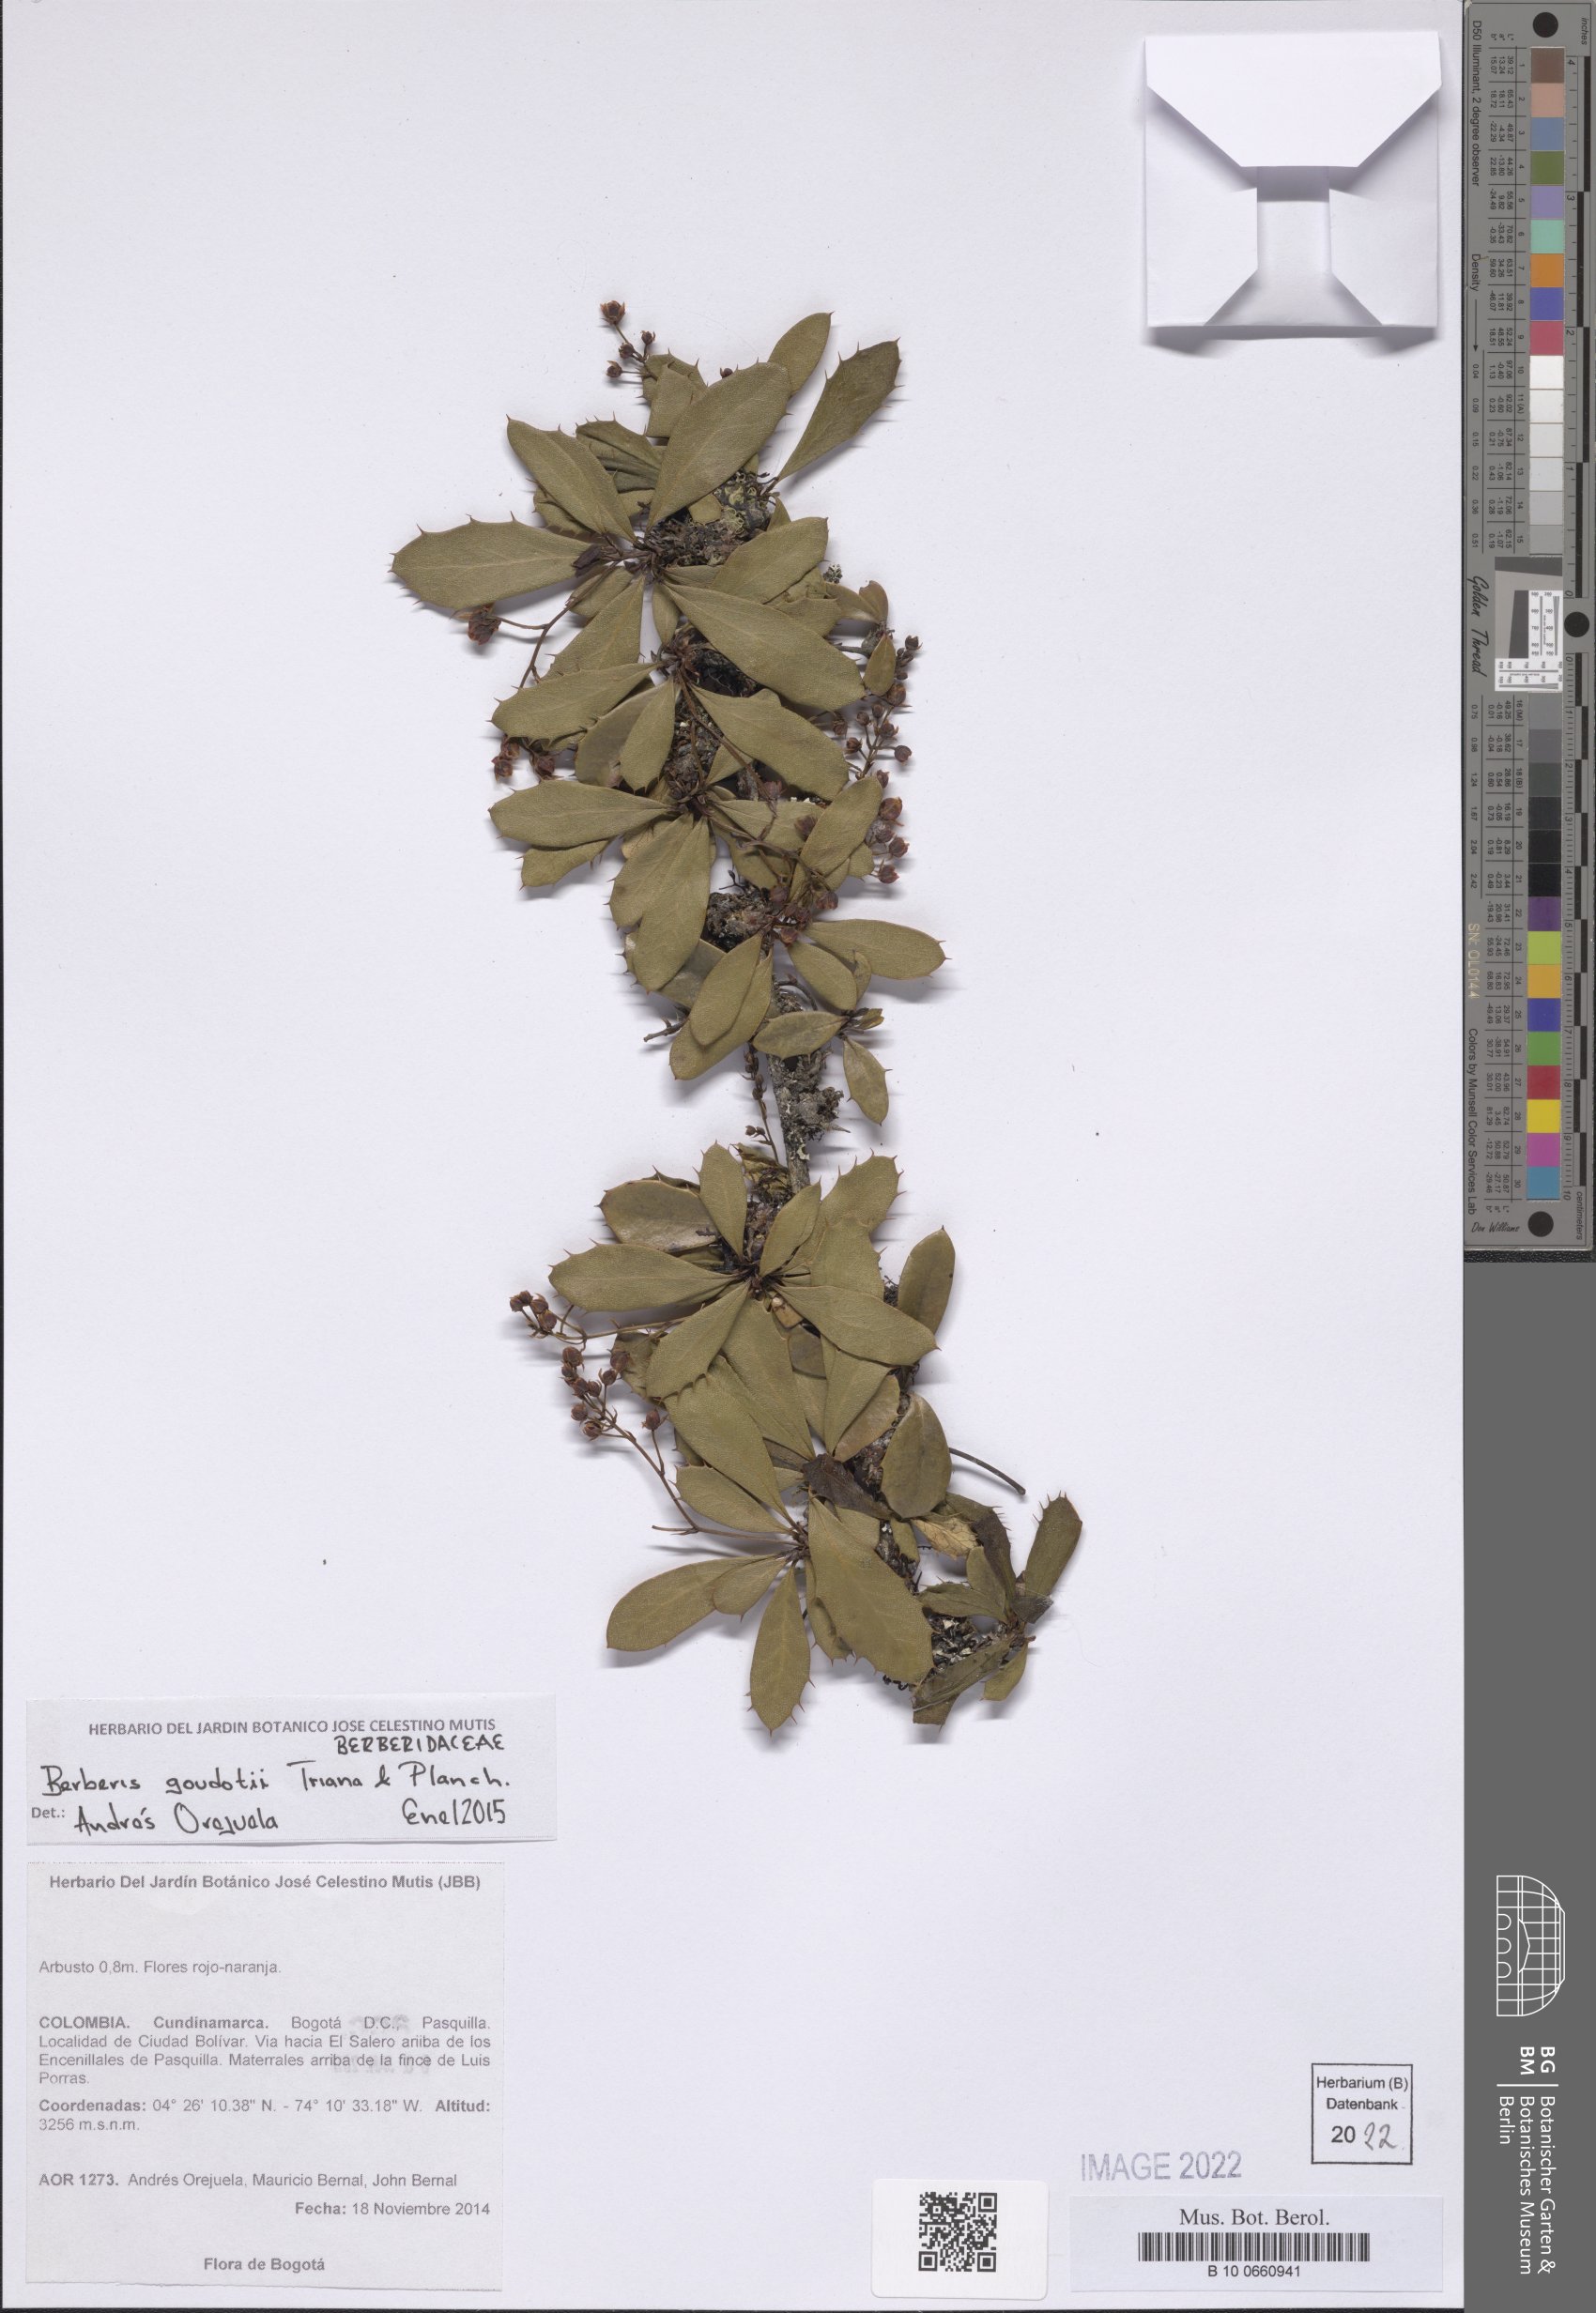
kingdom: Plantae
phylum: Tracheophyta
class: Magnoliopsida
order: Ranunculales
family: Berberidaceae
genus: Berberis
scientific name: Berberis goudotii
